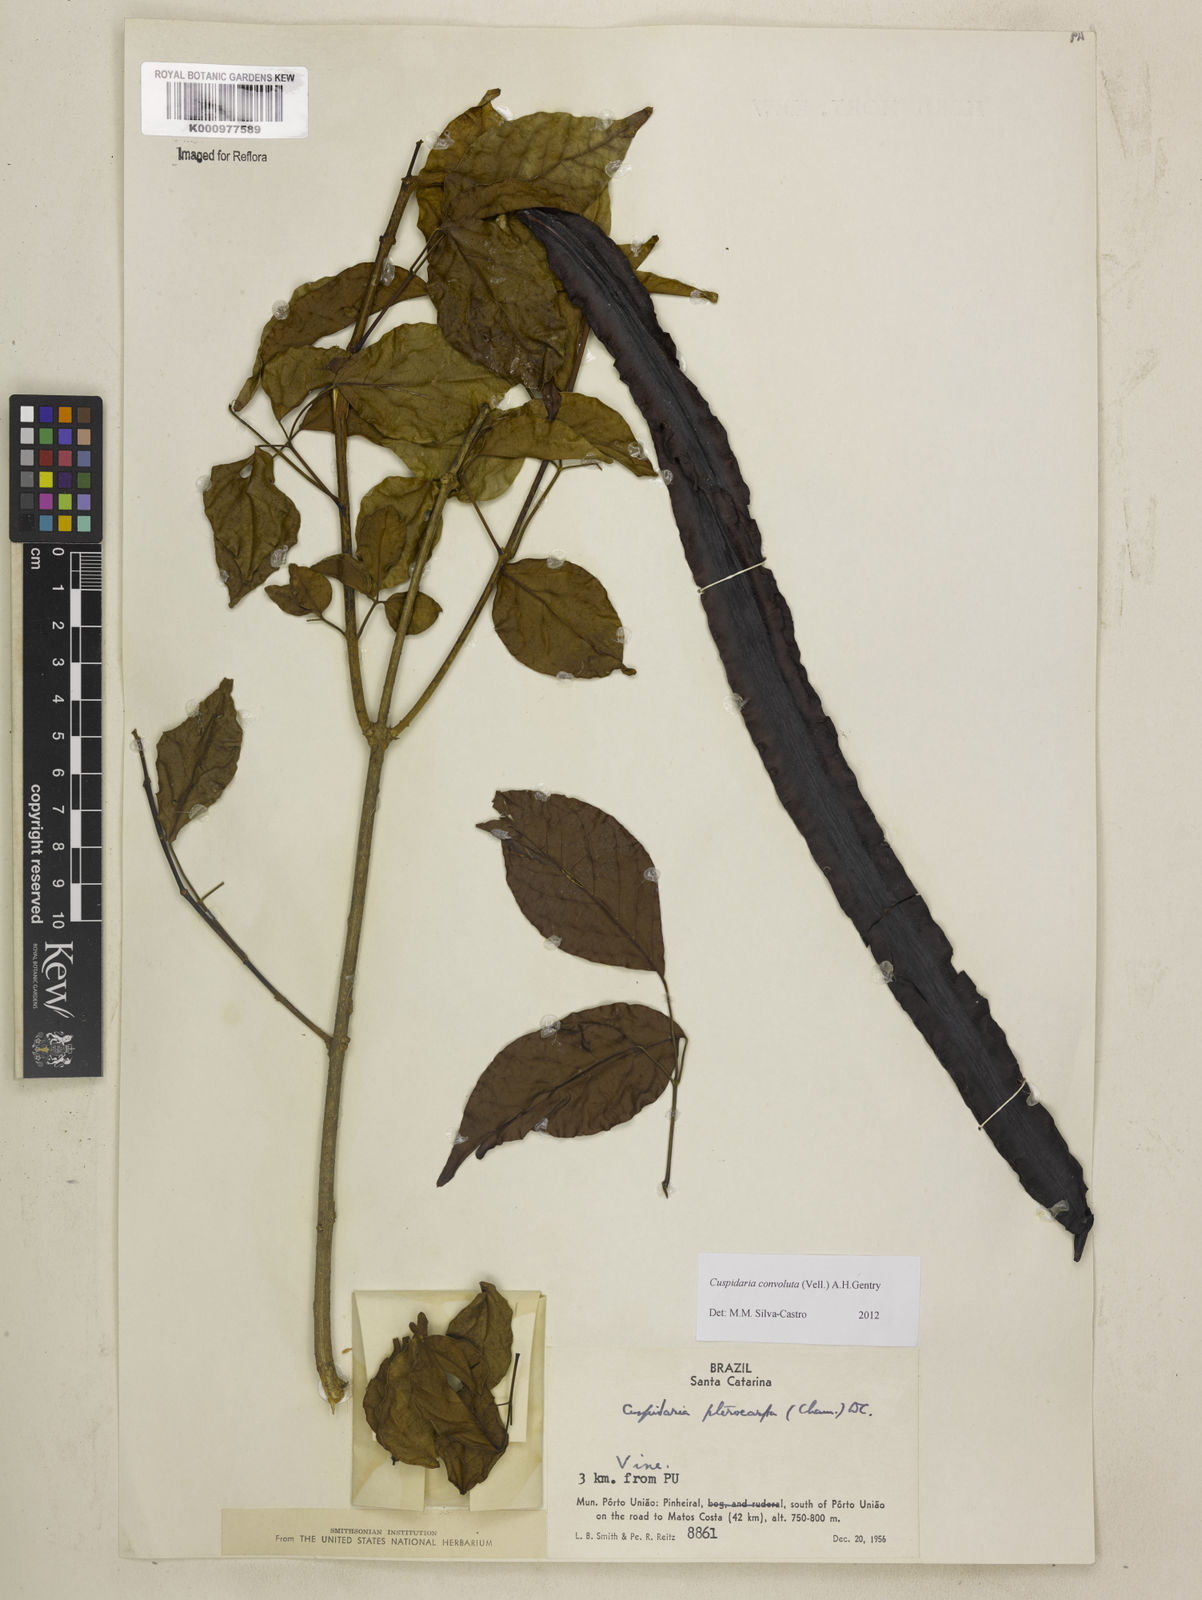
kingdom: Plantae
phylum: Tracheophyta
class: Magnoliopsida
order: Lamiales
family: Bignoniaceae
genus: Cuspidaria
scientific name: Cuspidaria convoluta
